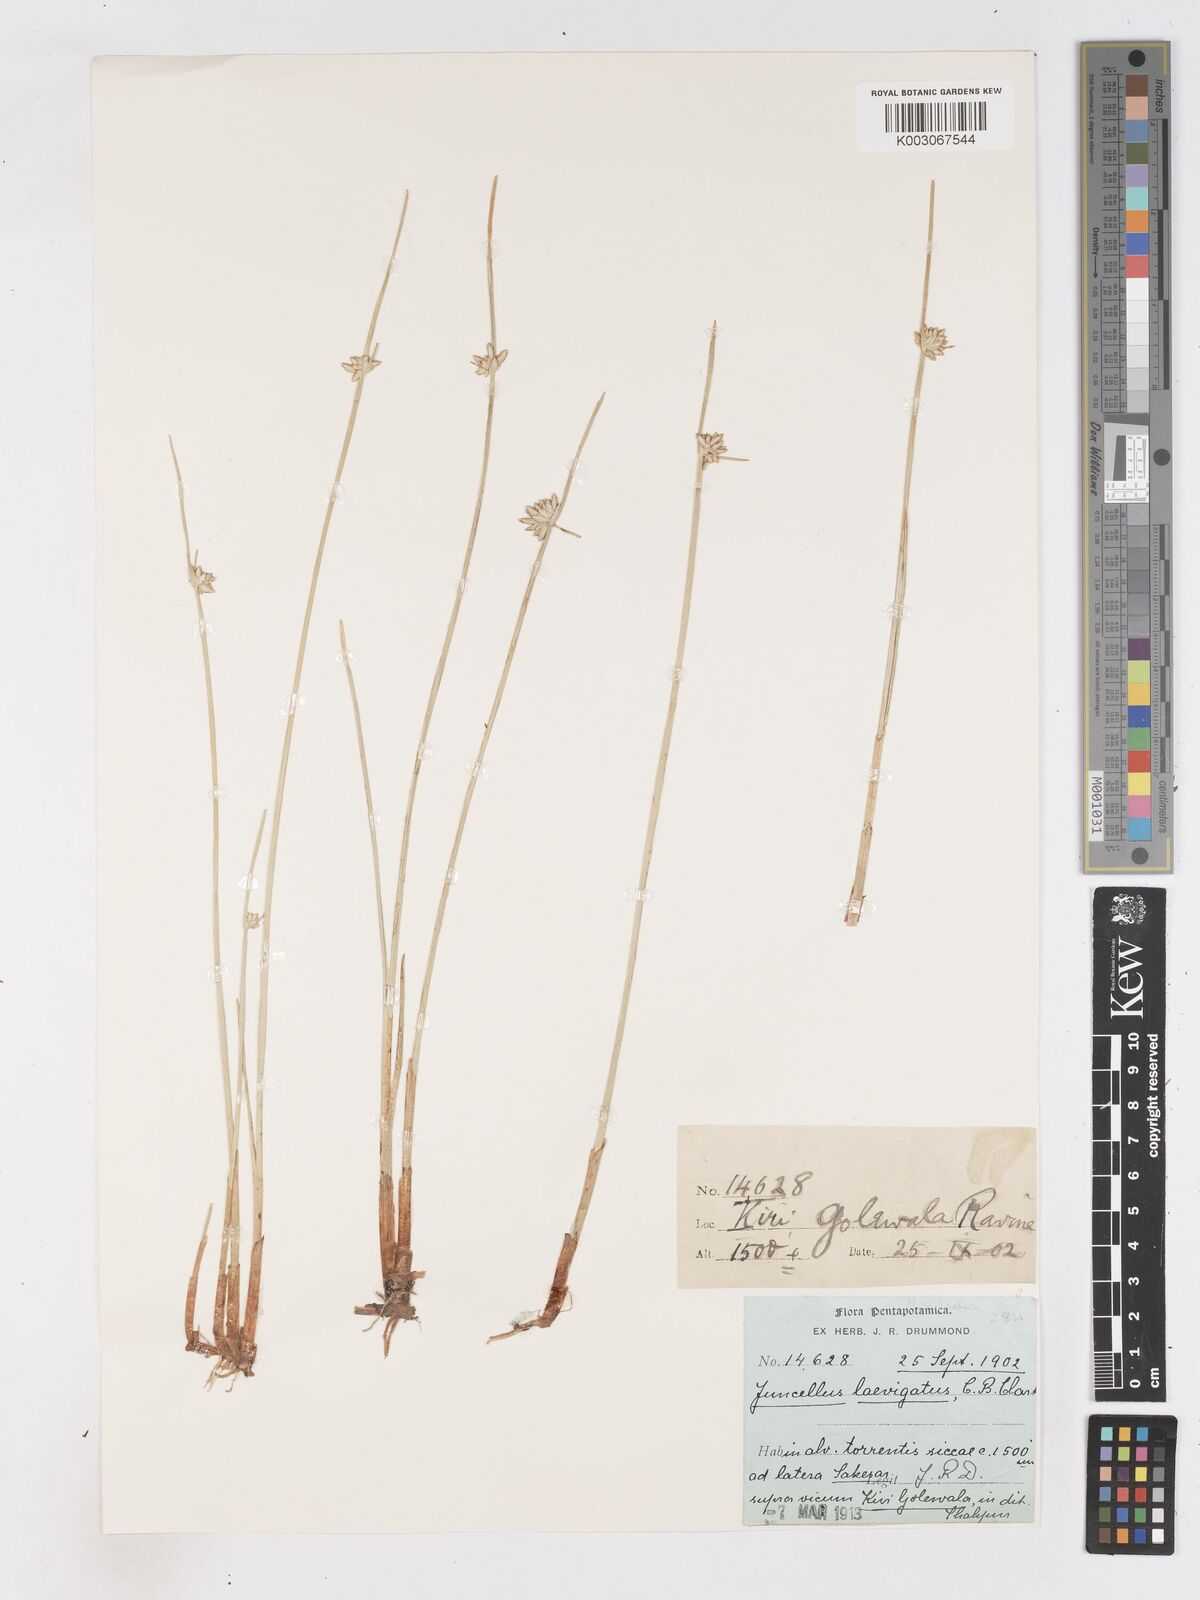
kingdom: Plantae
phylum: Tracheophyta
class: Liliopsida
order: Poales
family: Cyperaceae
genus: Cyperus
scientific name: Cyperus laevigatus
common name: Smooth flat sedge
